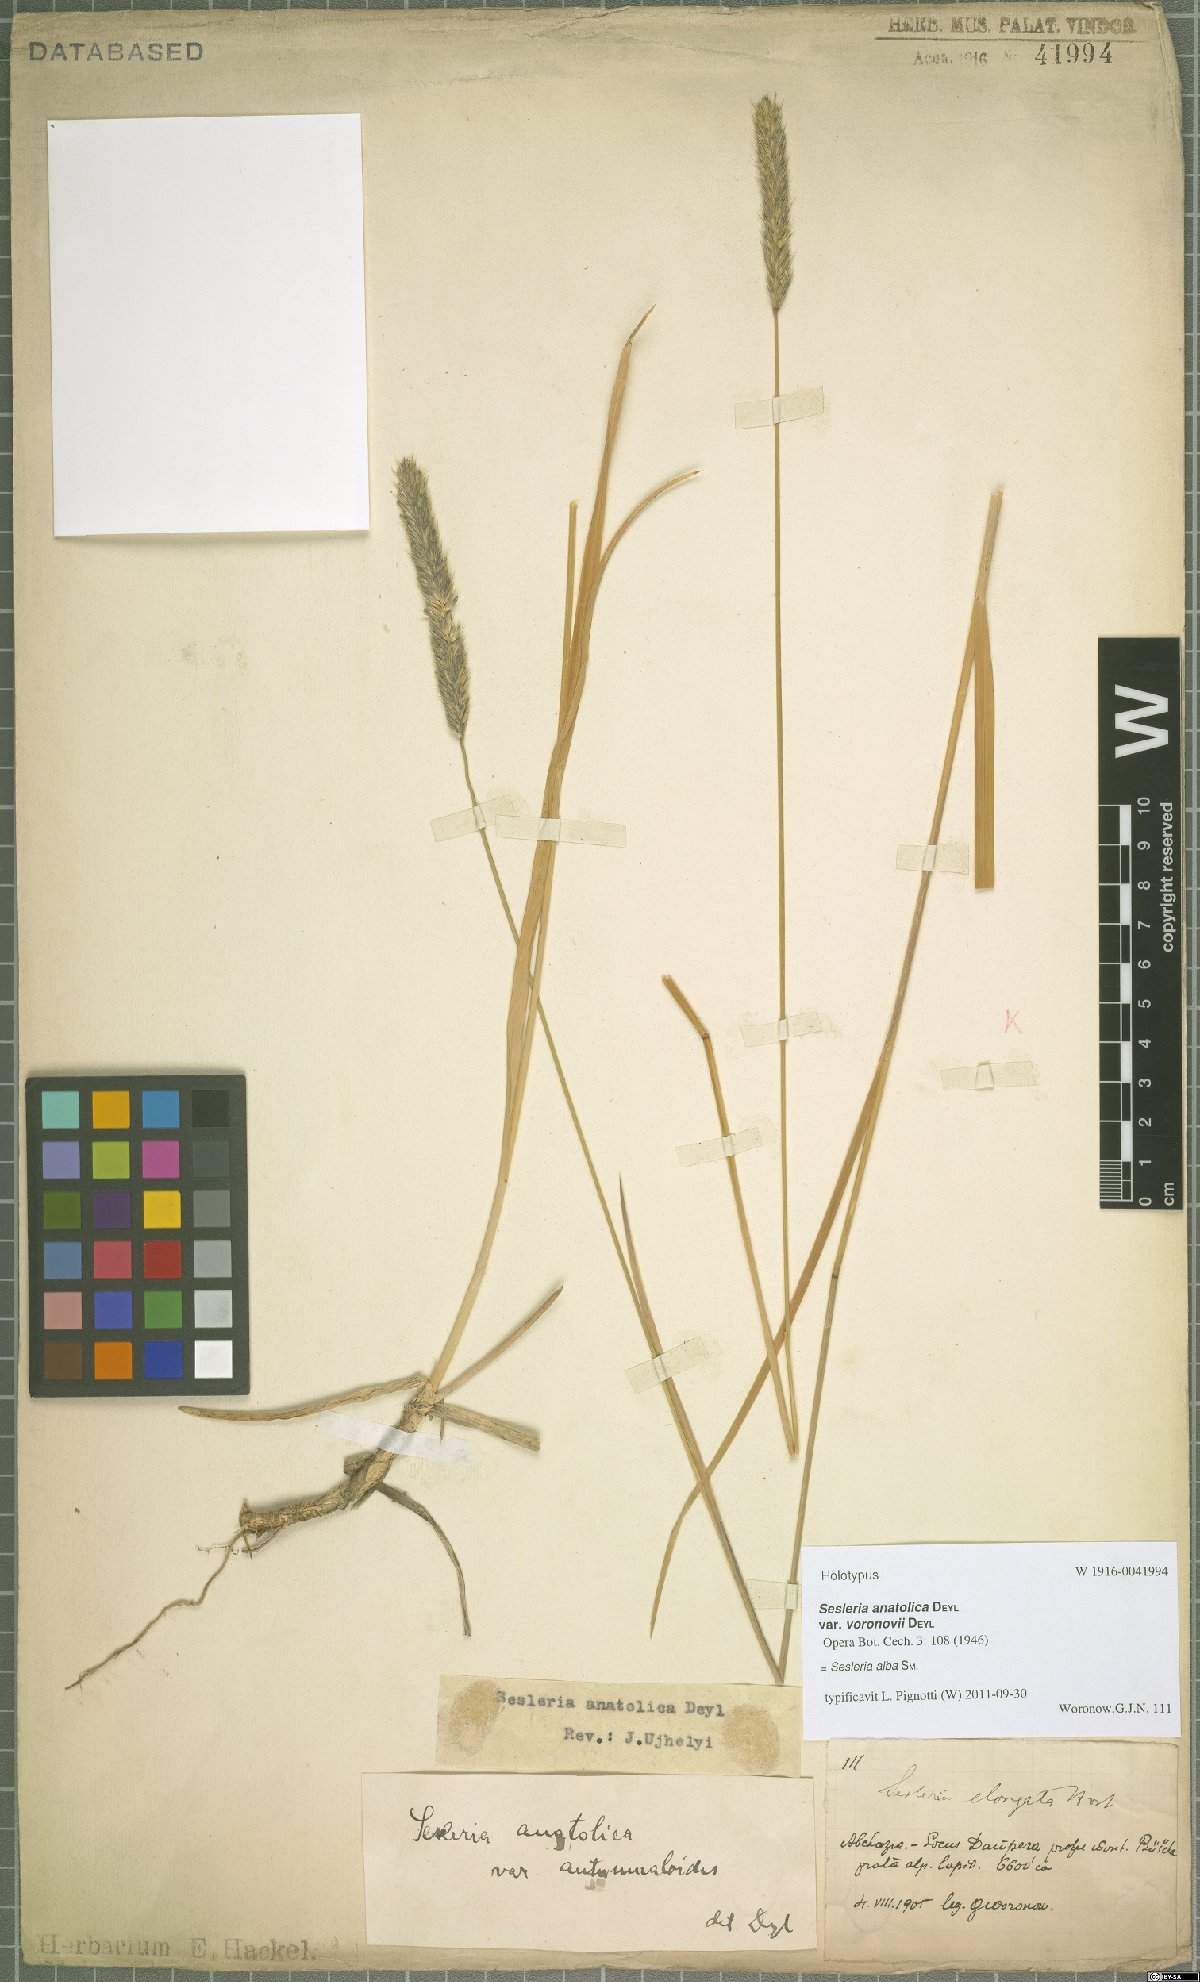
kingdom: Plantae
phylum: Tracheophyta
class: Liliopsida
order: Poales
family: Poaceae
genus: Sesleria
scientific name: Sesleria alba
